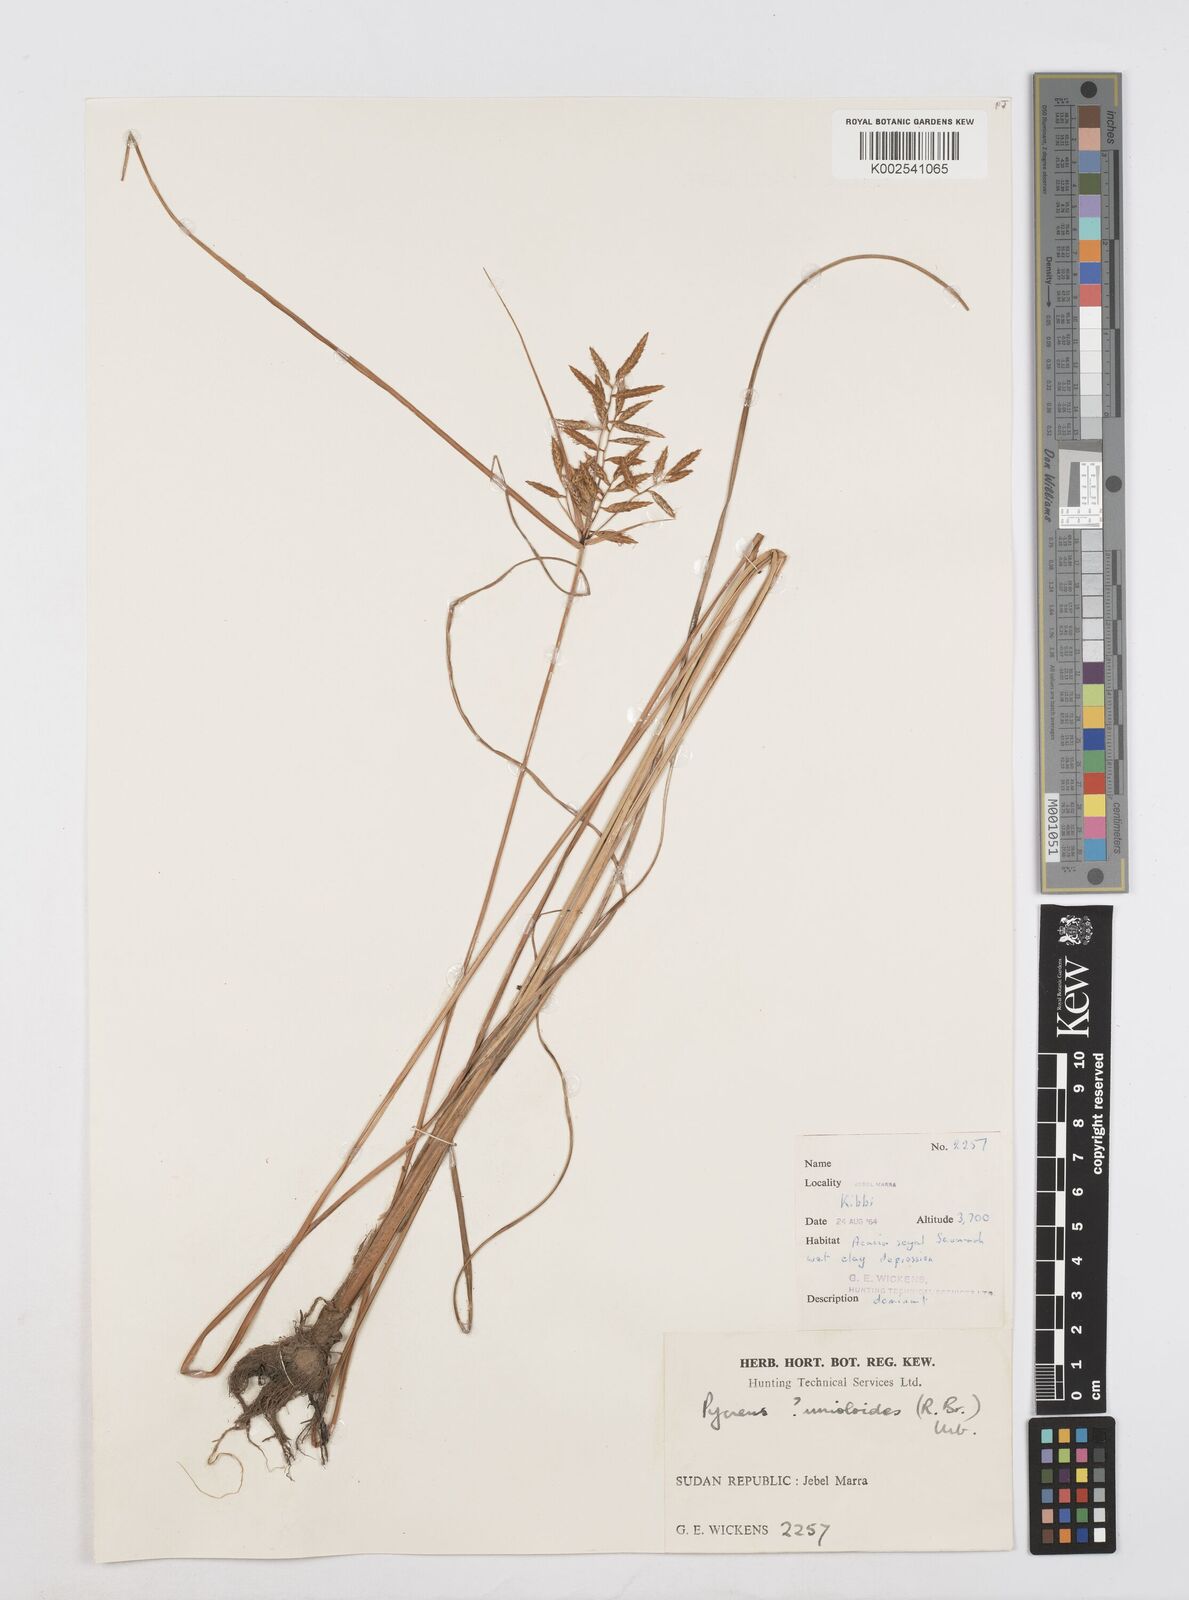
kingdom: Plantae
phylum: Tracheophyta
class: Liliopsida
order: Poales
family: Cyperaceae
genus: Cyperus
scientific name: Cyperus unioloides
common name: Uniola flatsedge
